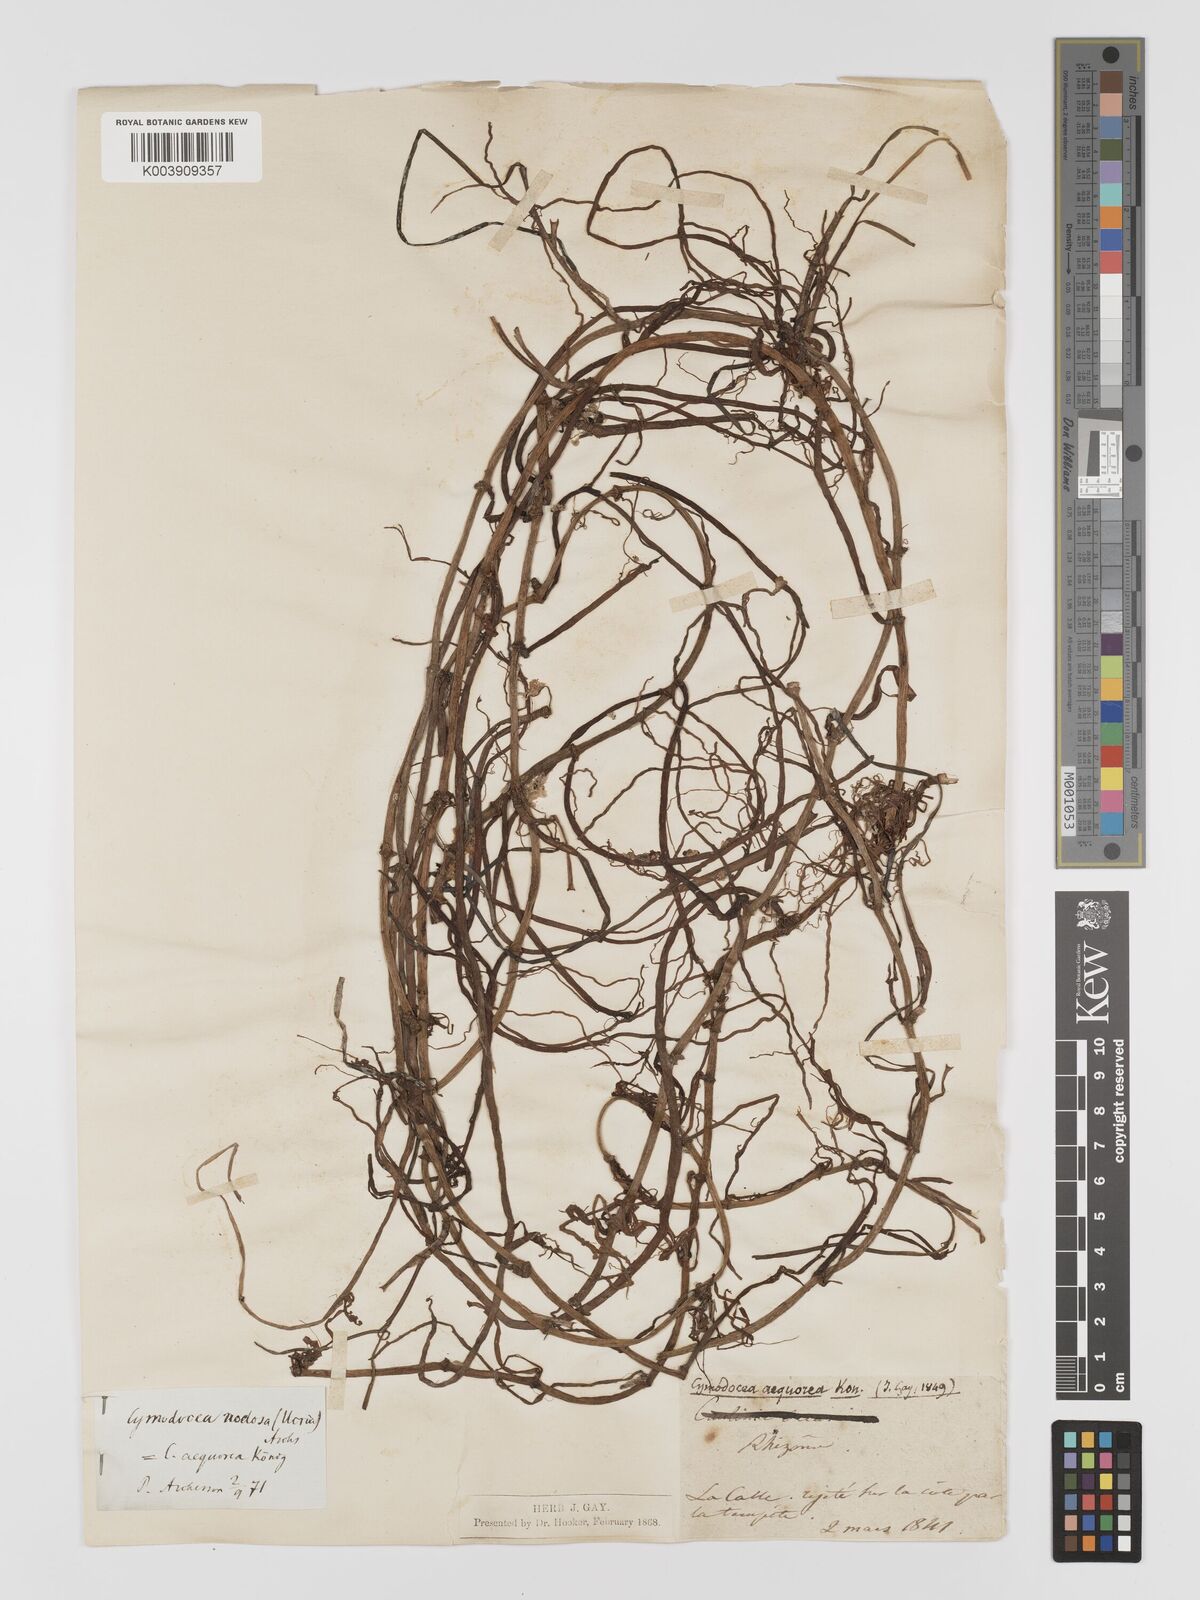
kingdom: Plantae
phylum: Tracheophyta
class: Liliopsida
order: Alismatales
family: Cymodoceaceae
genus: Cymodocea
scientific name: Cymodocea nodosa
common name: Slender seagrass
